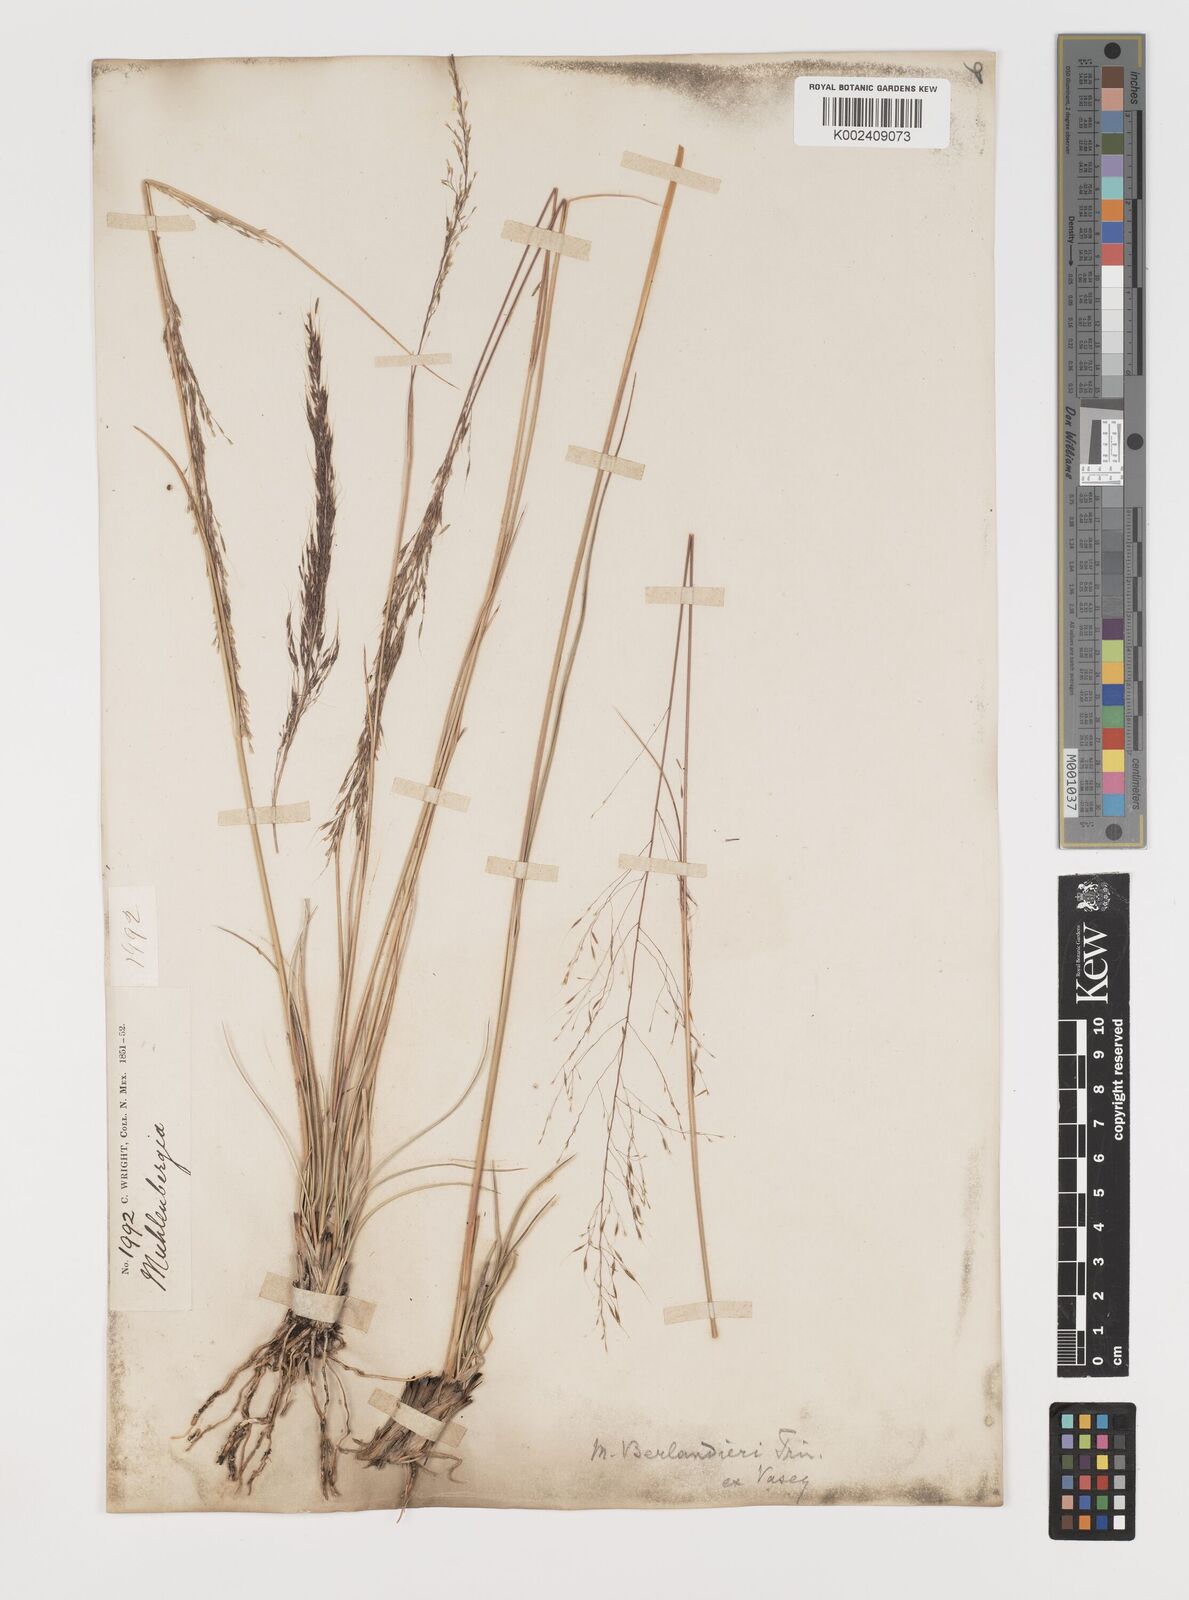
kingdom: Plantae
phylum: Tracheophyta
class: Liliopsida
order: Poales
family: Poaceae
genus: Muhlenbergia
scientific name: Muhlenbergia rigida
